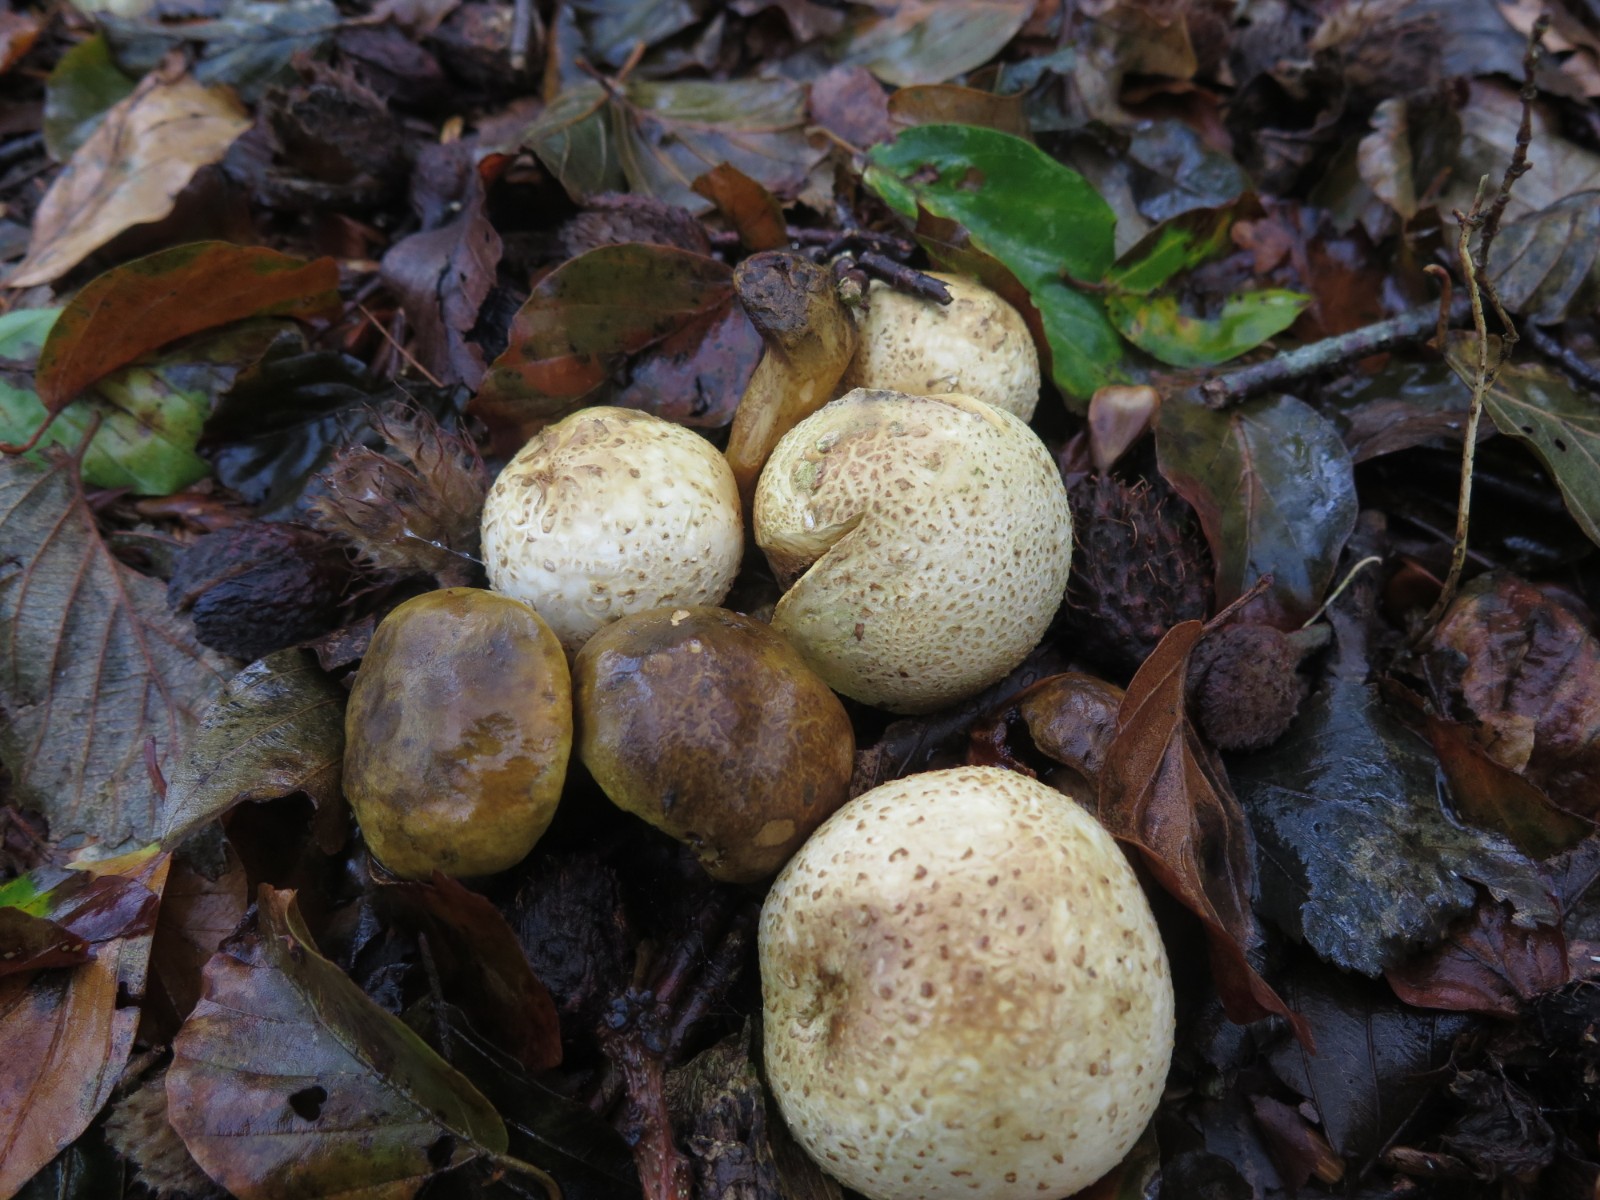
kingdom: Fungi
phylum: Basidiomycota
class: Agaricomycetes
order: Boletales
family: Boletaceae
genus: Pseudoboletus
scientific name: Pseudoboletus parasiticus
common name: snyltende rørhat
